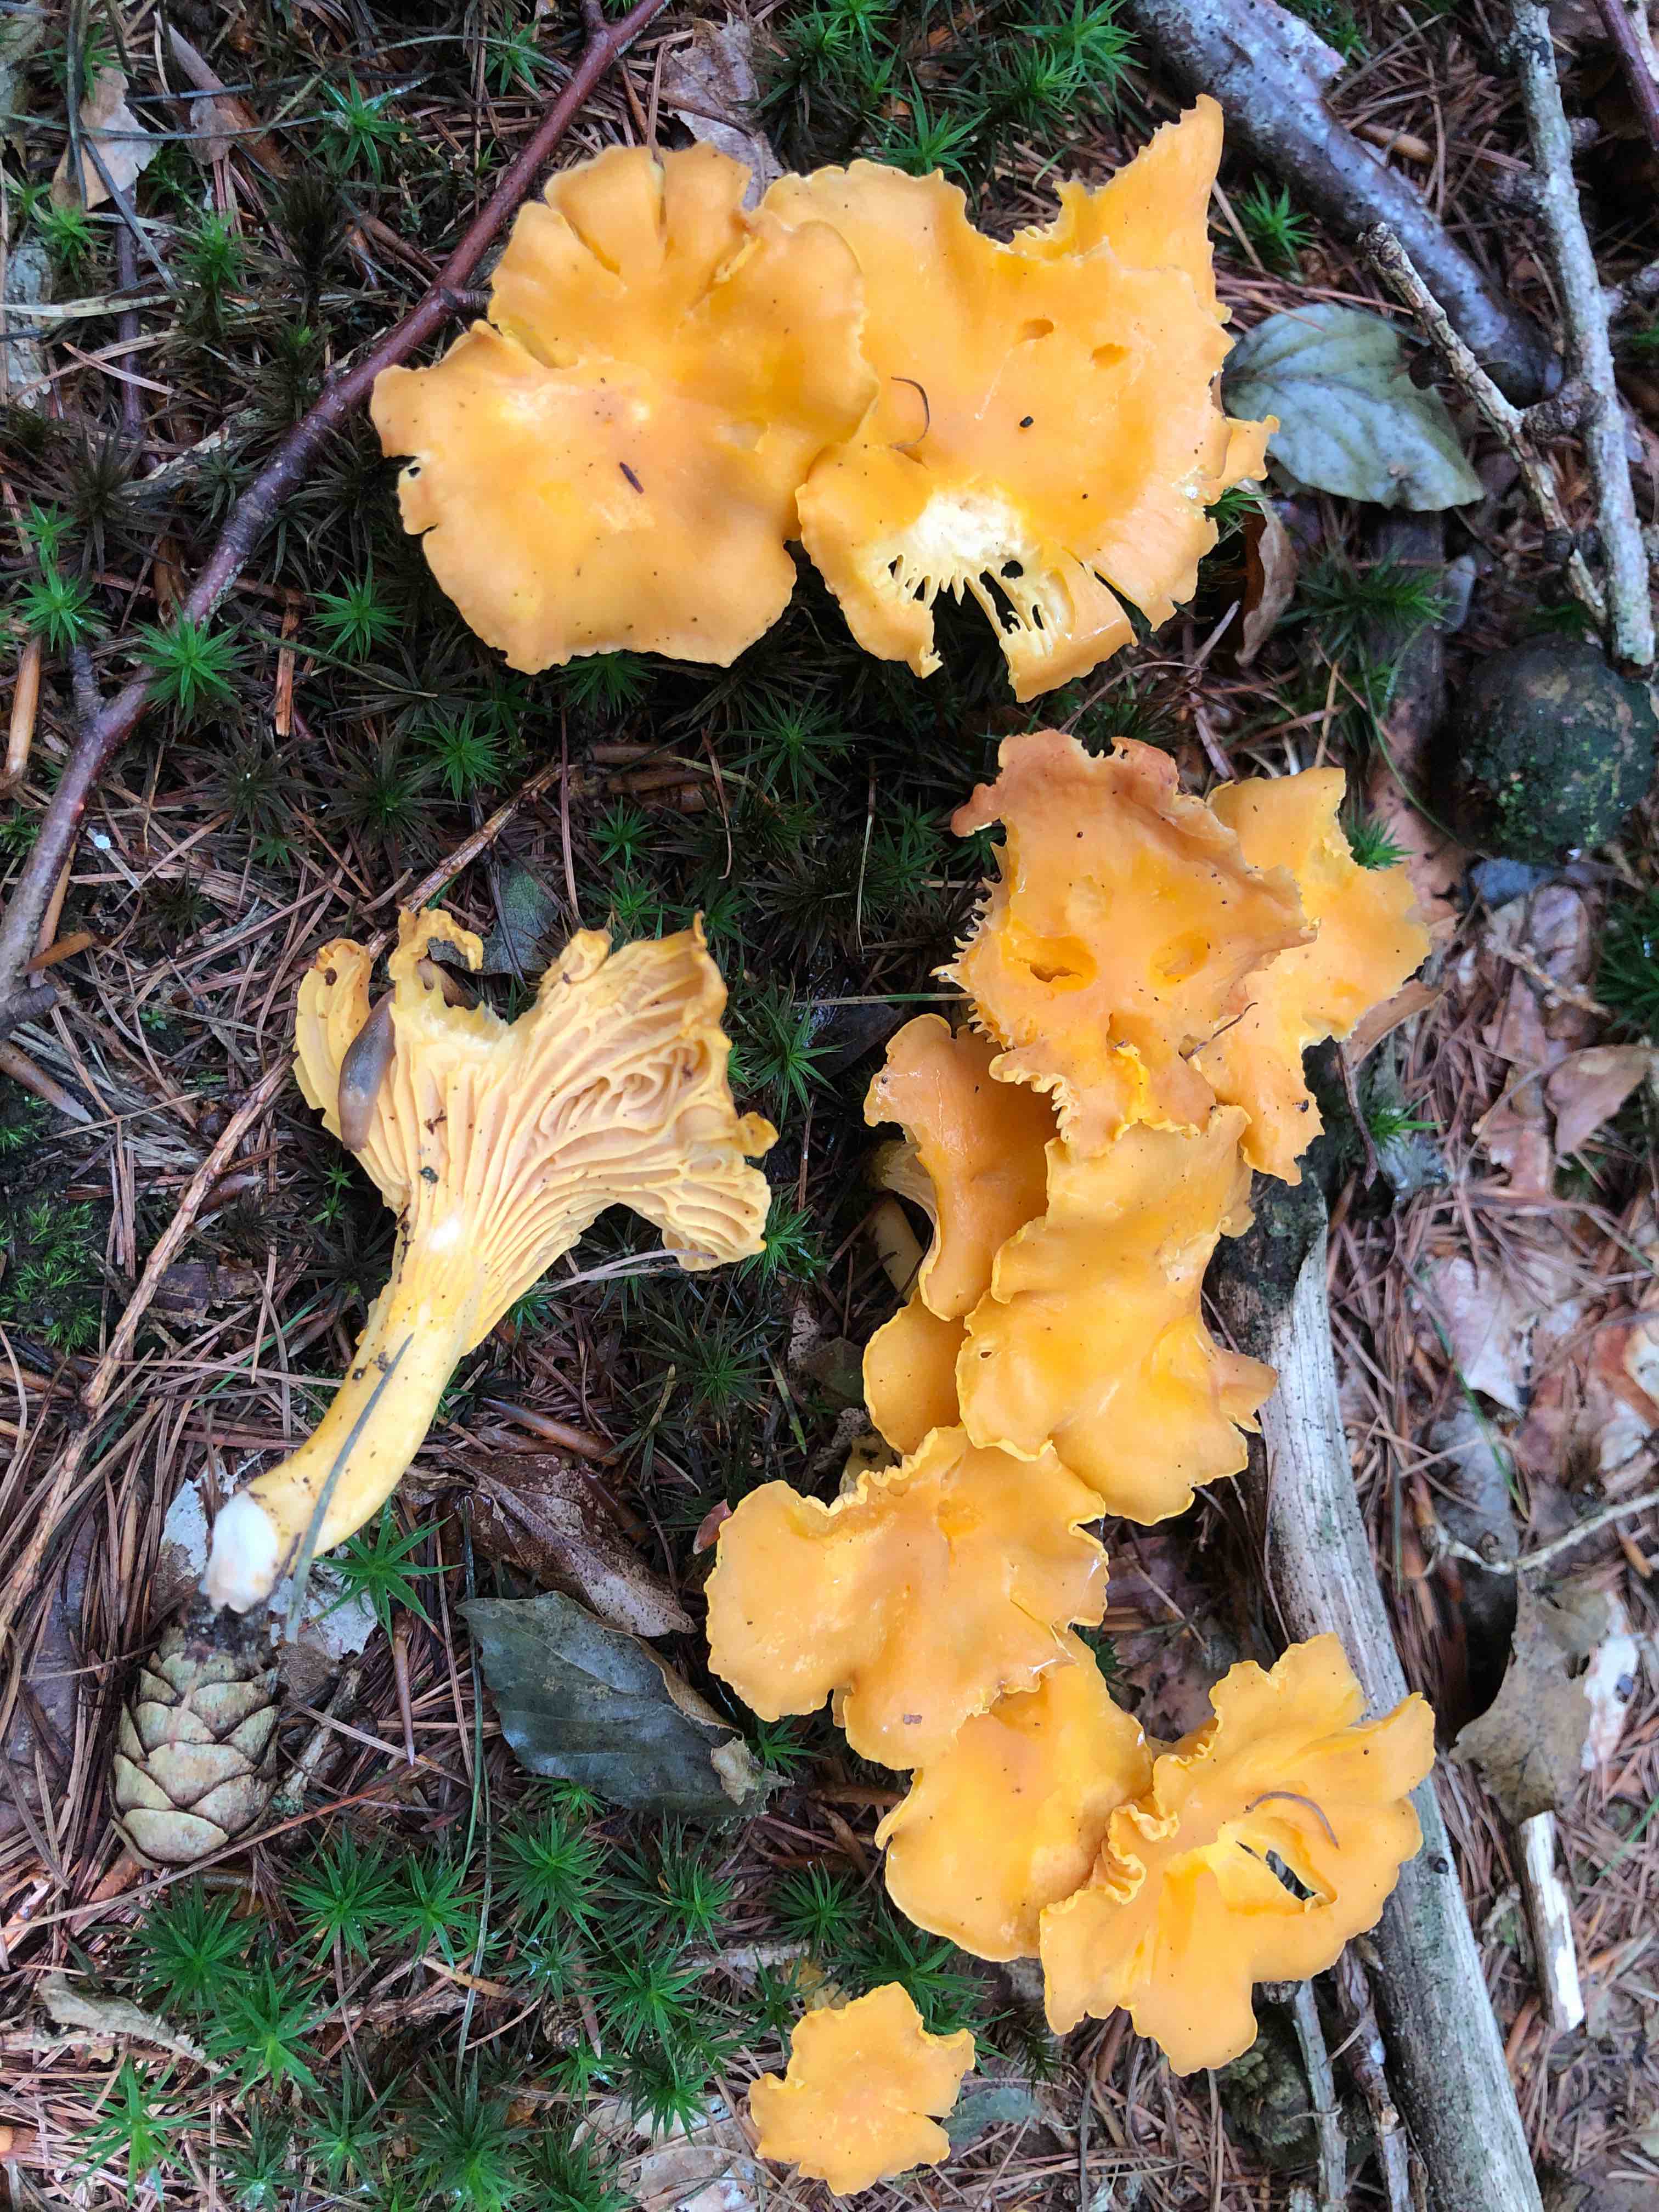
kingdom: Fungi
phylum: Basidiomycota
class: Agaricomycetes
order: Cantharellales
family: Hydnaceae
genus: Cantharellus
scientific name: Cantharellus cibarius
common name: almindelig kantarel
